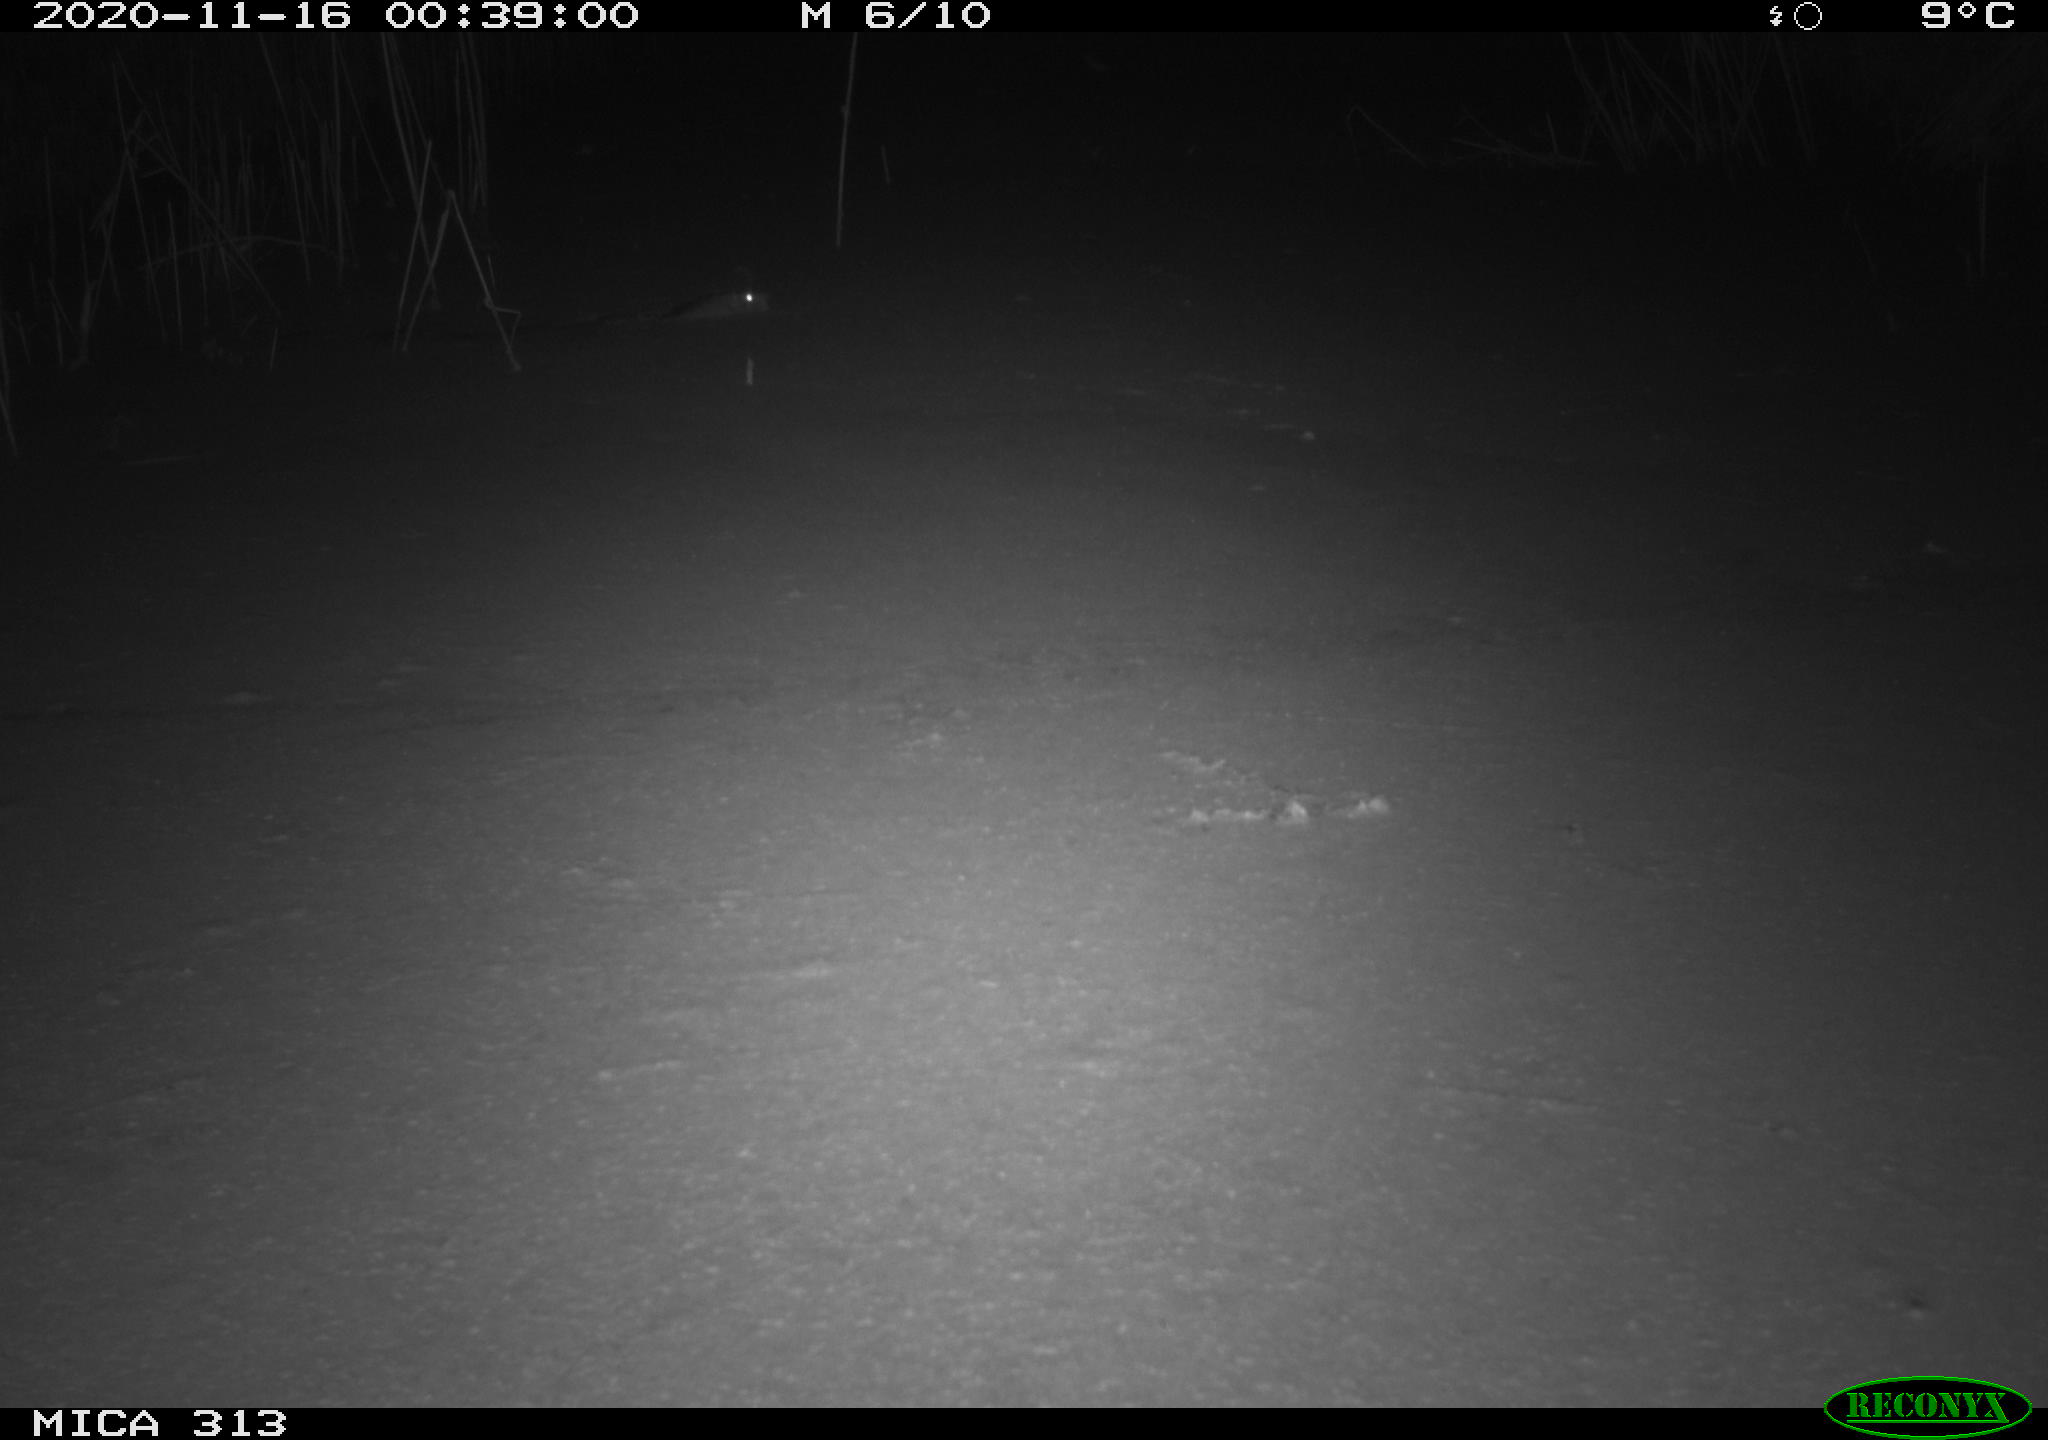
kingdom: Animalia
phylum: Chordata
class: Mammalia
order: Rodentia
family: Muridae
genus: Rattus
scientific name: Rattus norvegicus
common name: Brown rat
